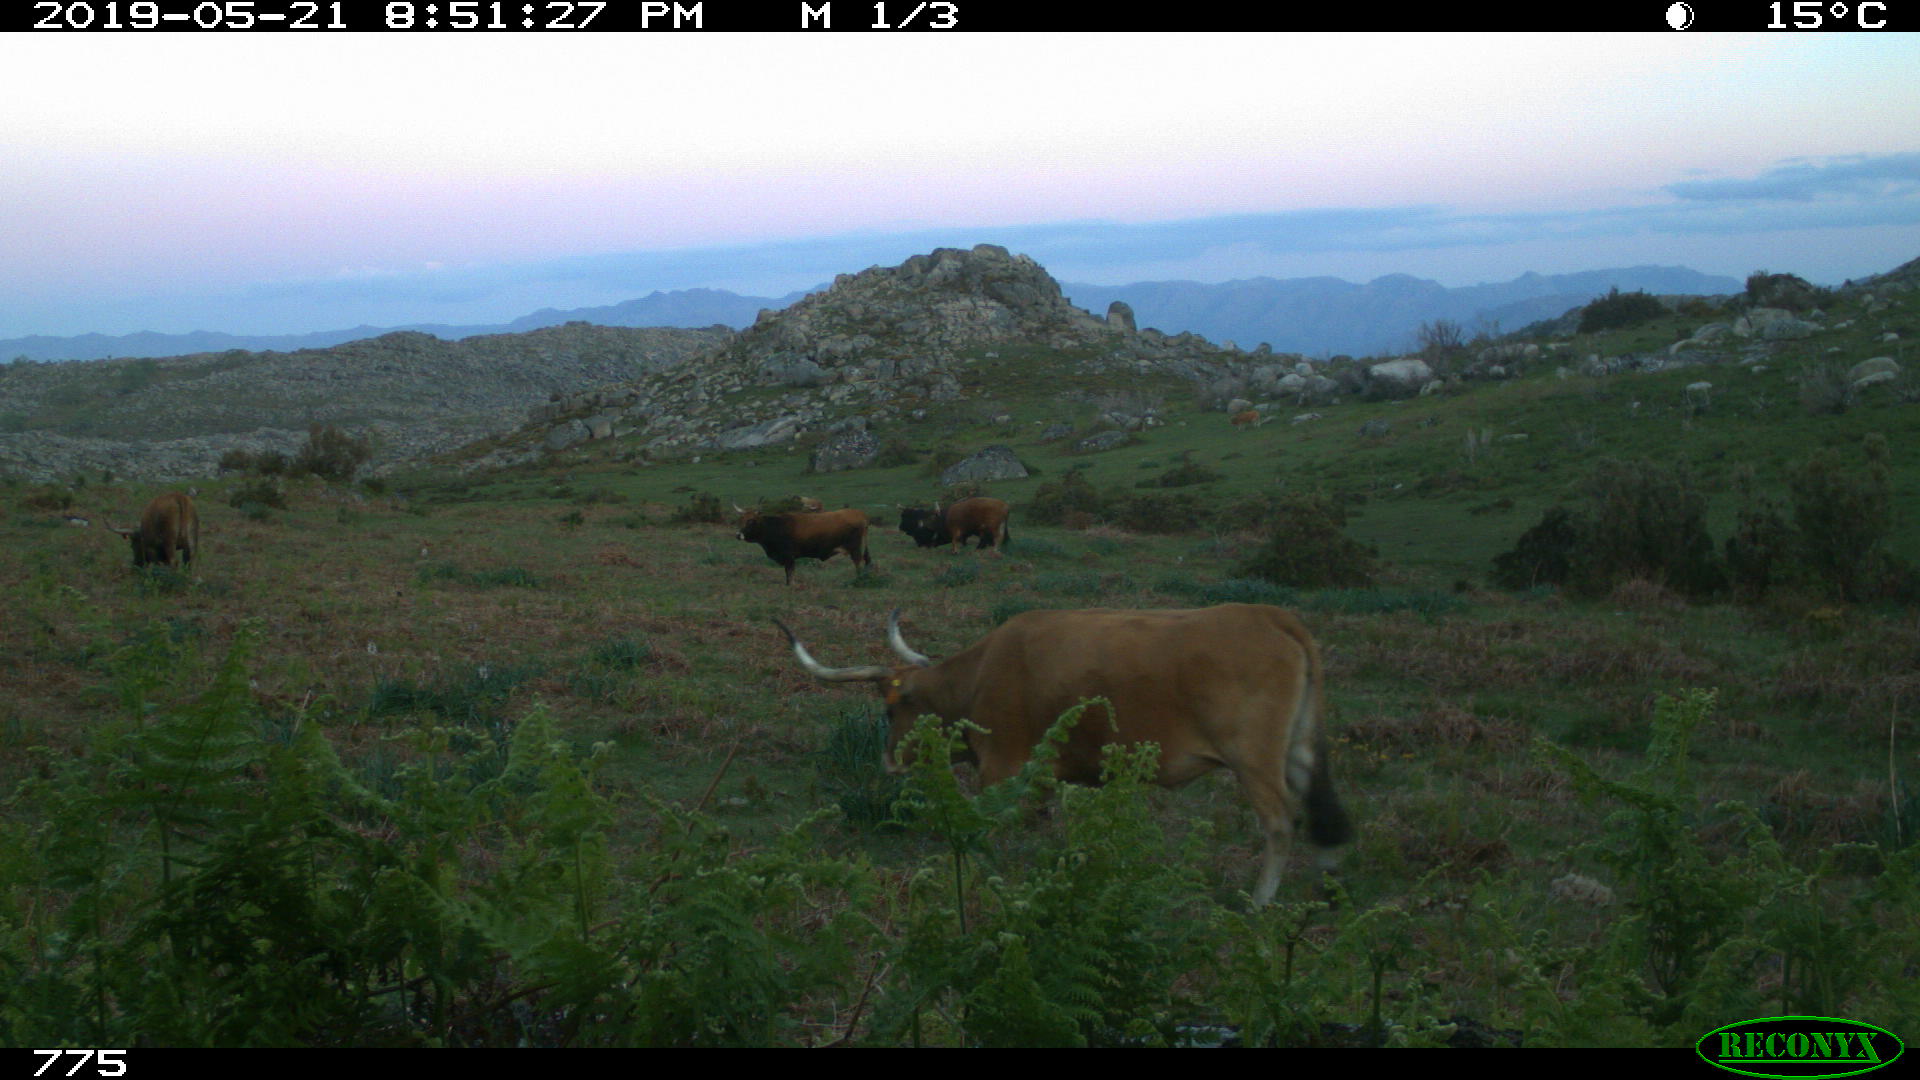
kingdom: Animalia
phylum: Chordata
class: Mammalia
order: Artiodactyla
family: Bovidae
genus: Bos
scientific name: Bos taurus
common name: Domesticated cattle
